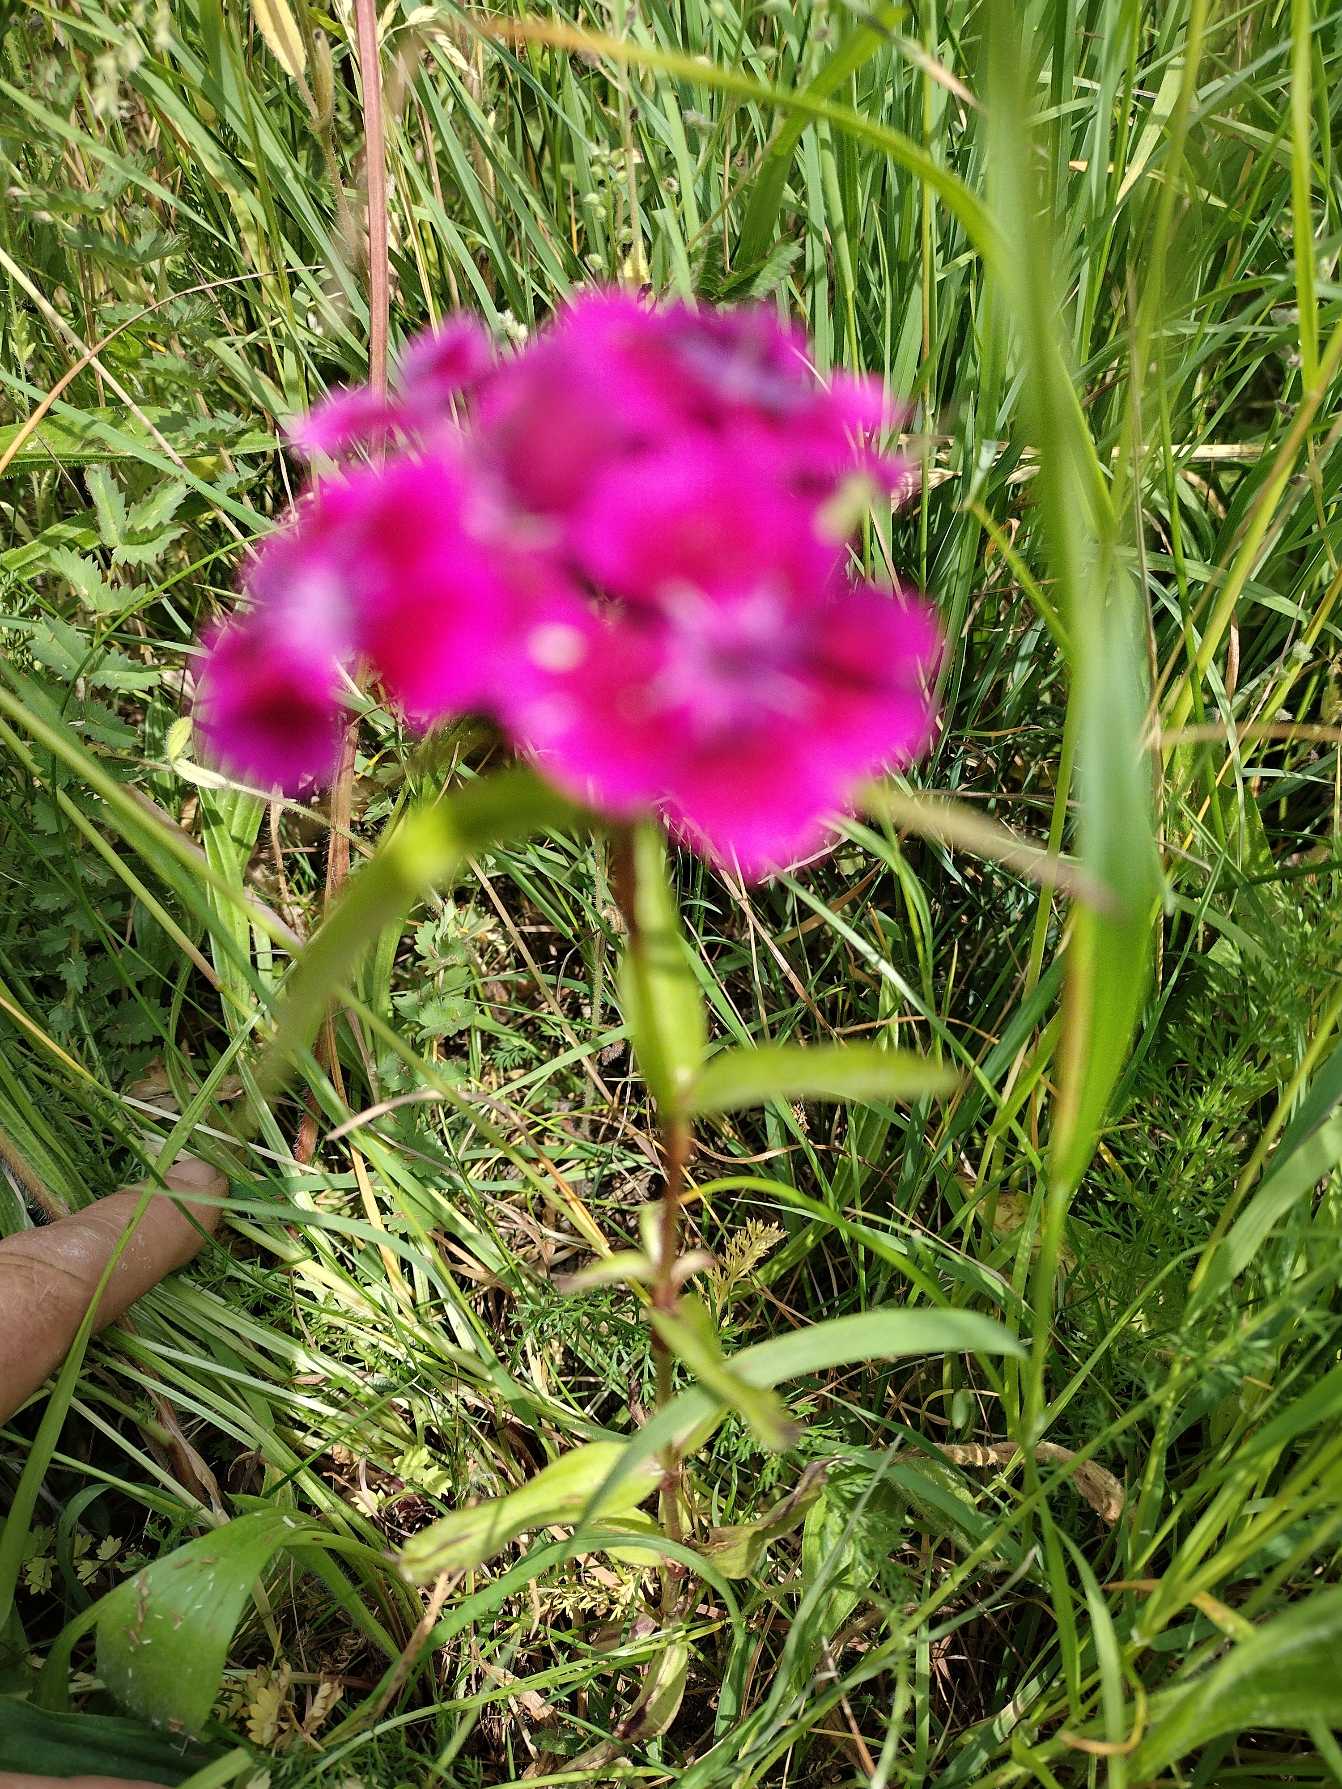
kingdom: Plantae
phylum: Tracheophyta
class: Magnoliopsida
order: Caryophyllales
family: Caryophyllaceae
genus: Dianthus
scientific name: Dianthus barbatus
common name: Studenter-nellike
